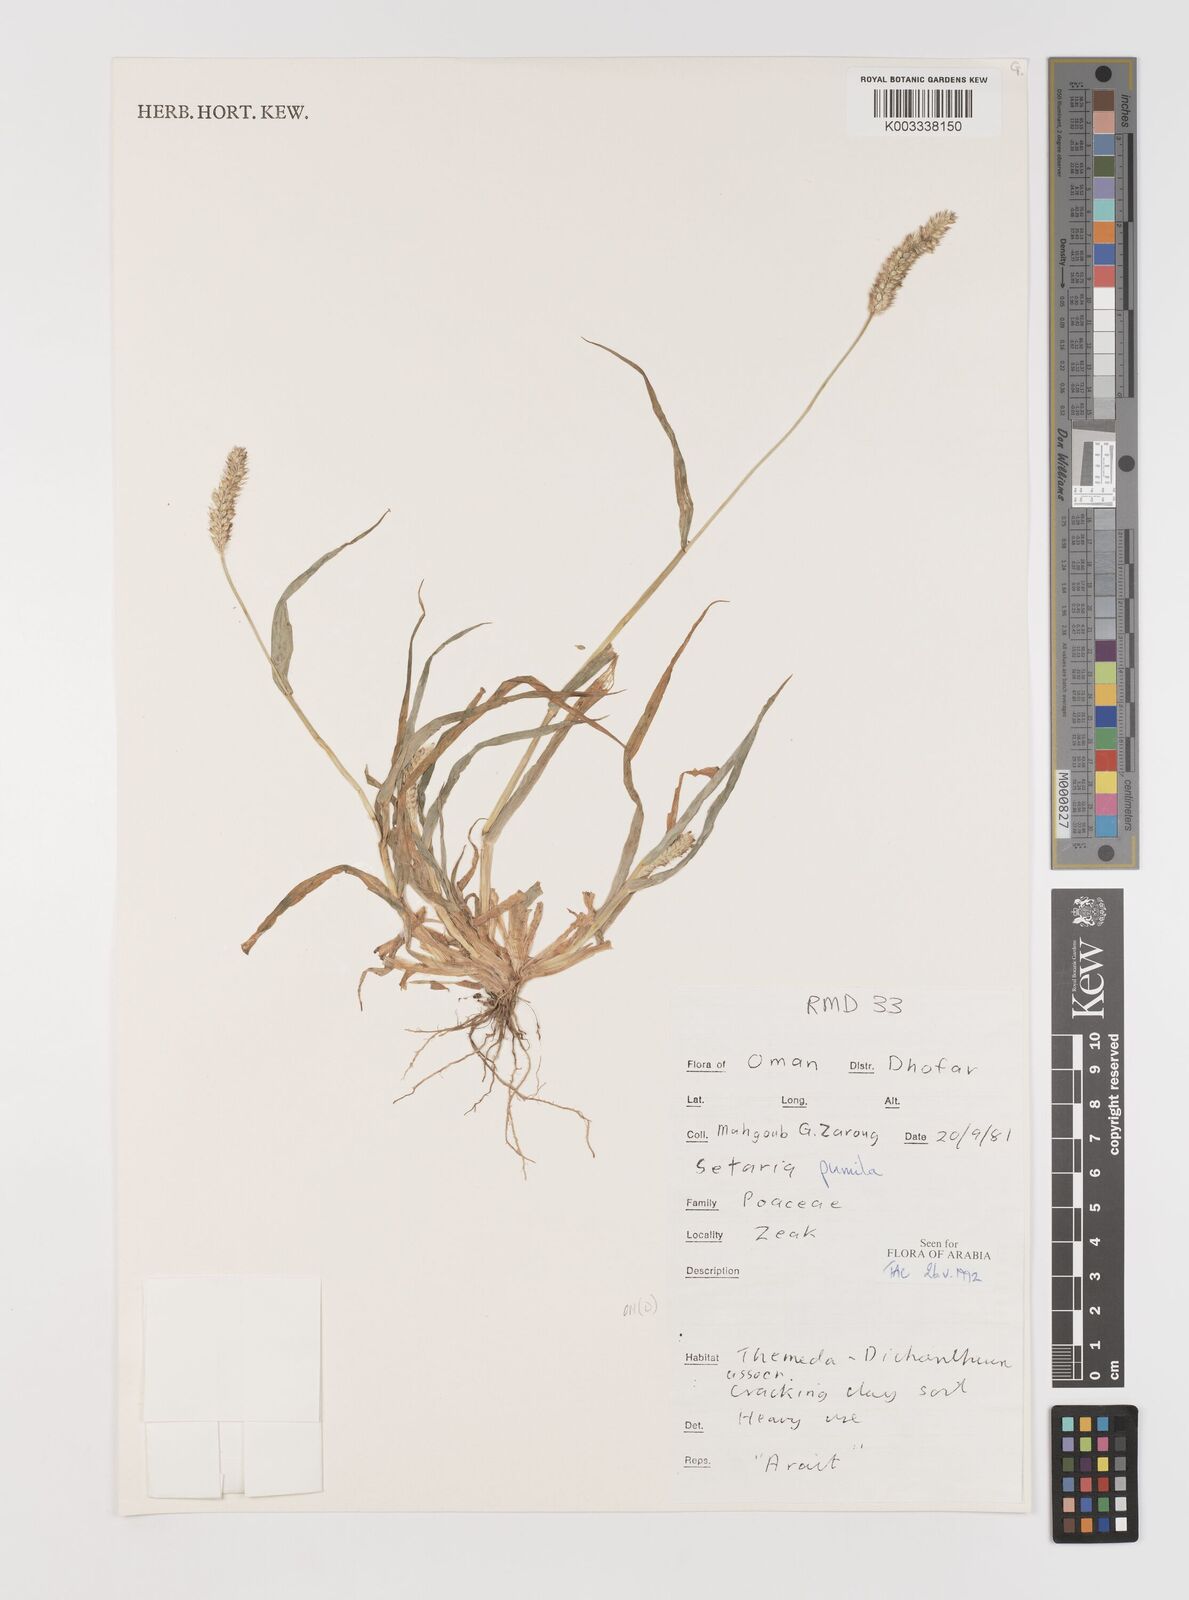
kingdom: Plantae
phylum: Tracheophyta
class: Liliopsida
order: Poales
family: Poaceae
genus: Setaria
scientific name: Setaria pumila
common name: Yellow bristle-grass
